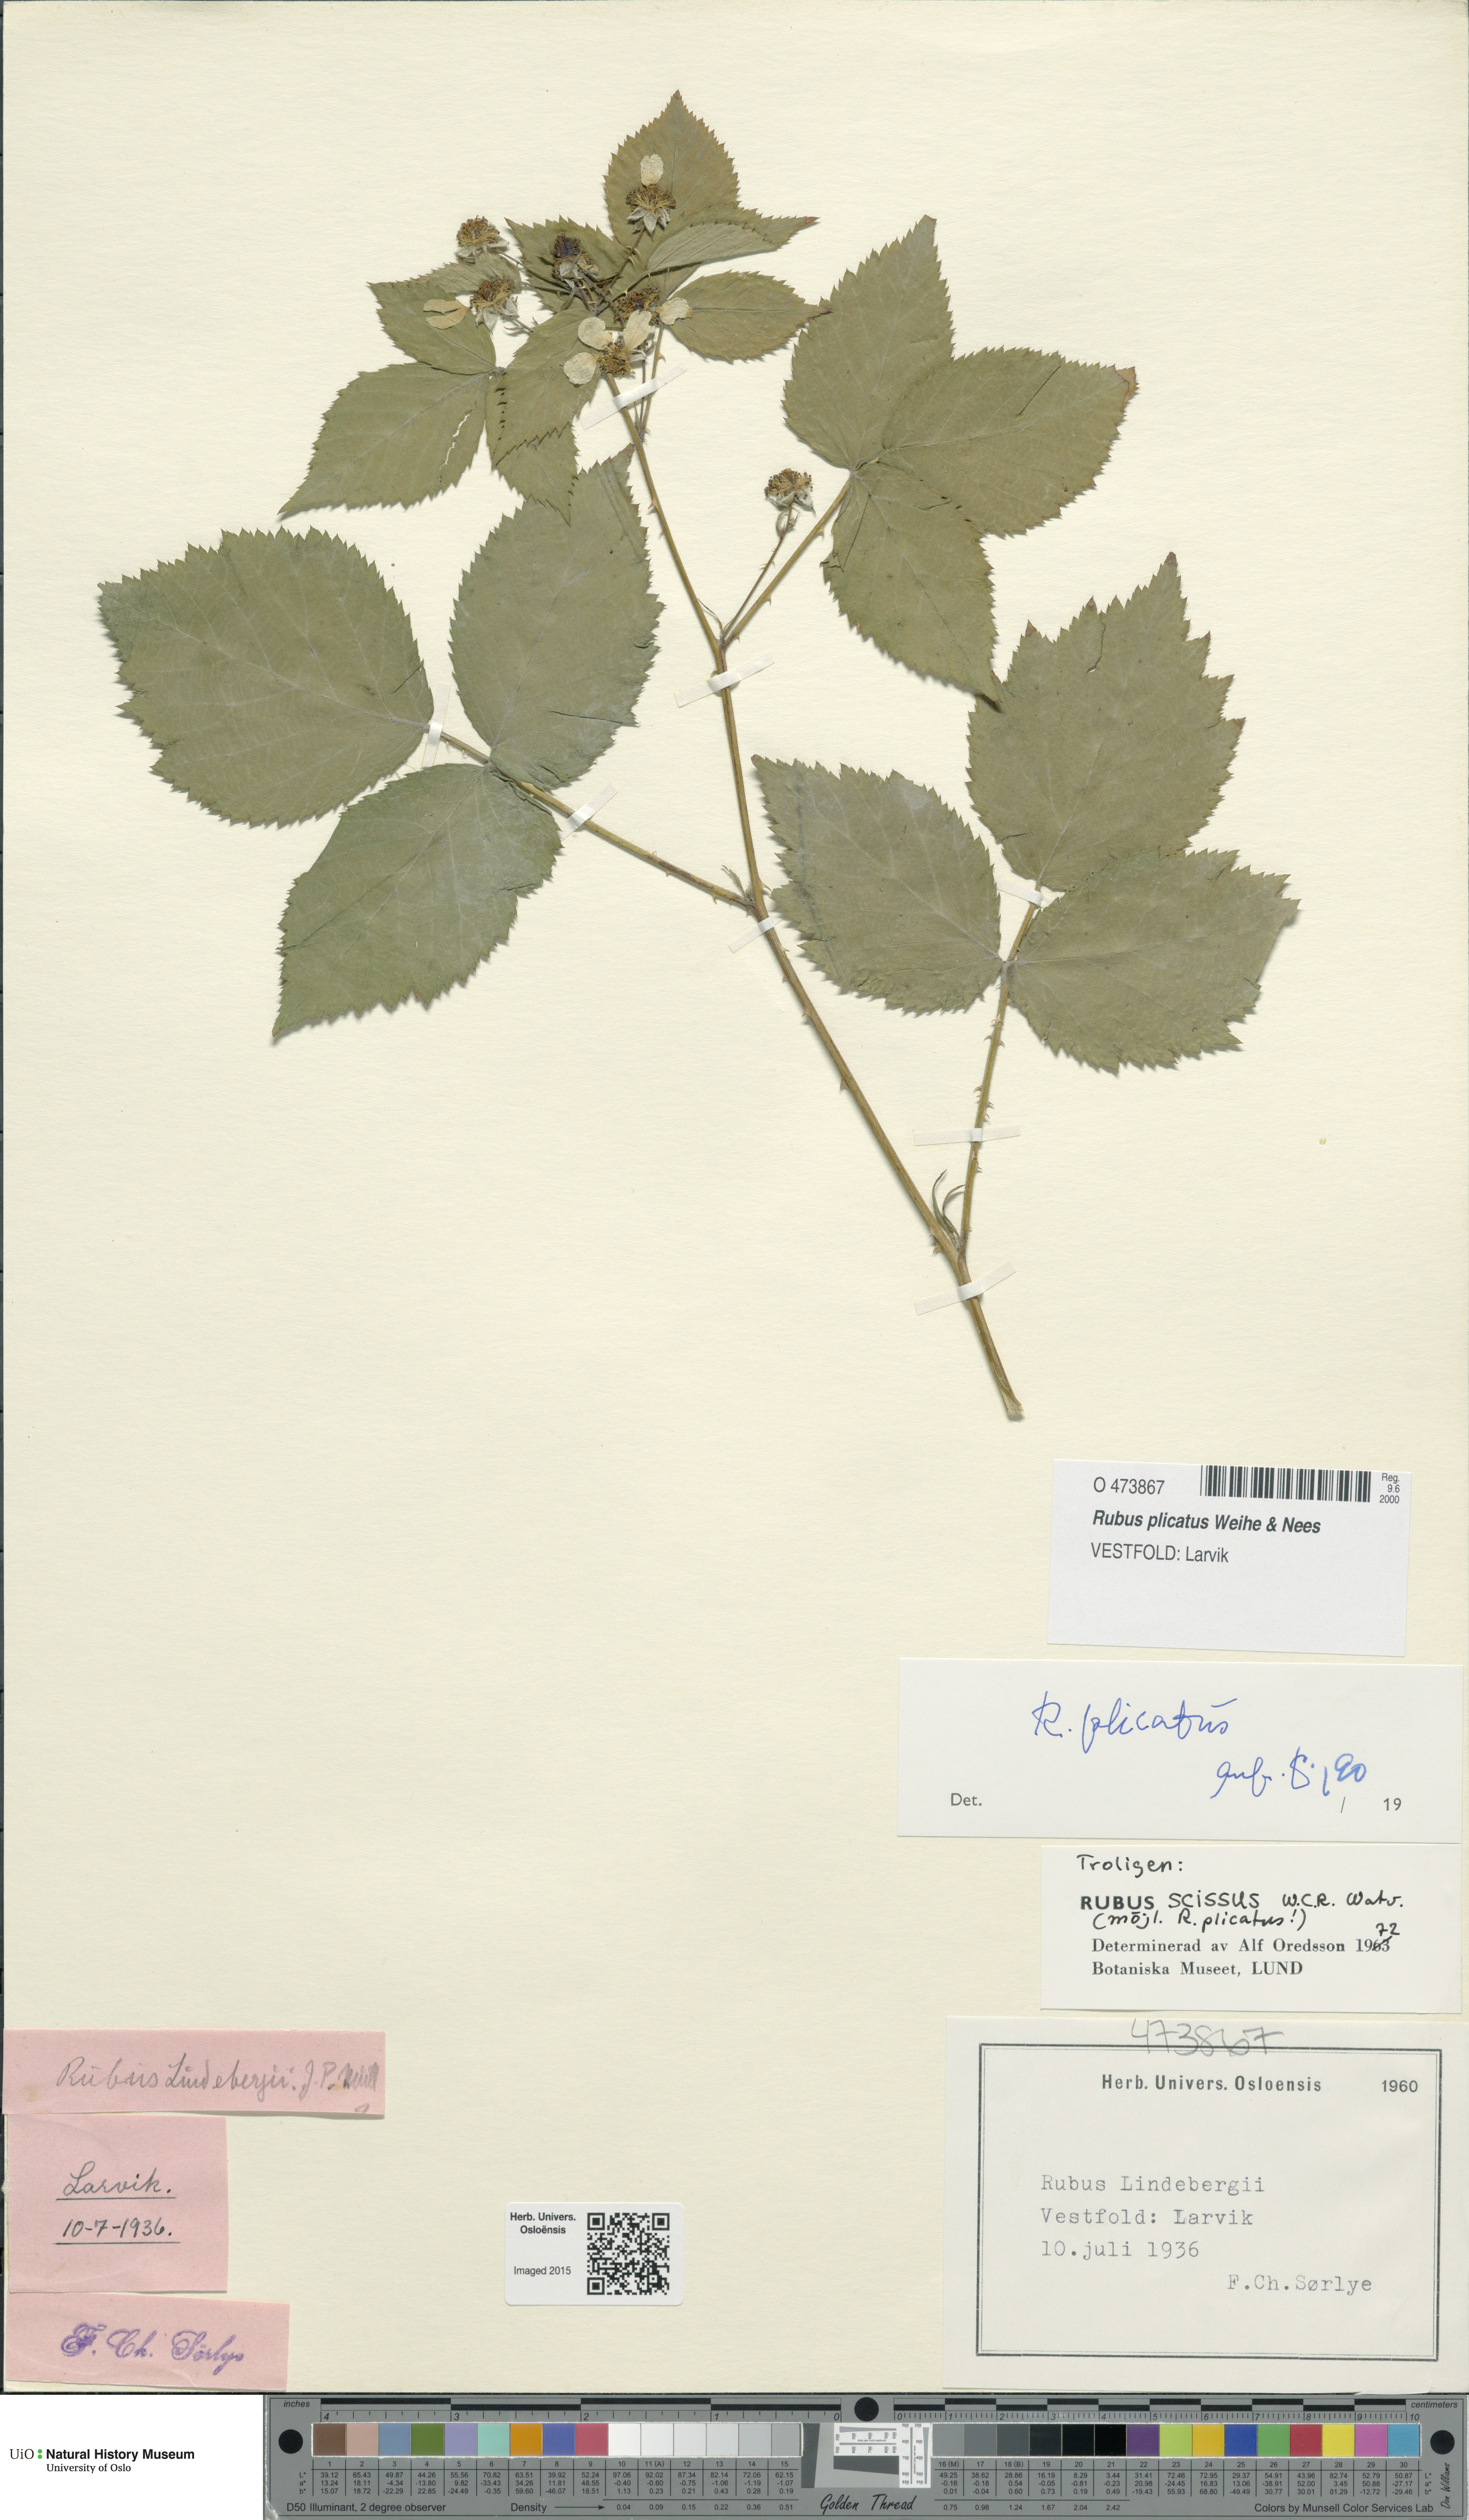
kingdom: Plantae
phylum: Tracheophyta
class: Magnoliopsida
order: Rosales
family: Rosaceae
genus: Rubus
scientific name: Rubus fruticosus
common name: Blackberry, bramble
